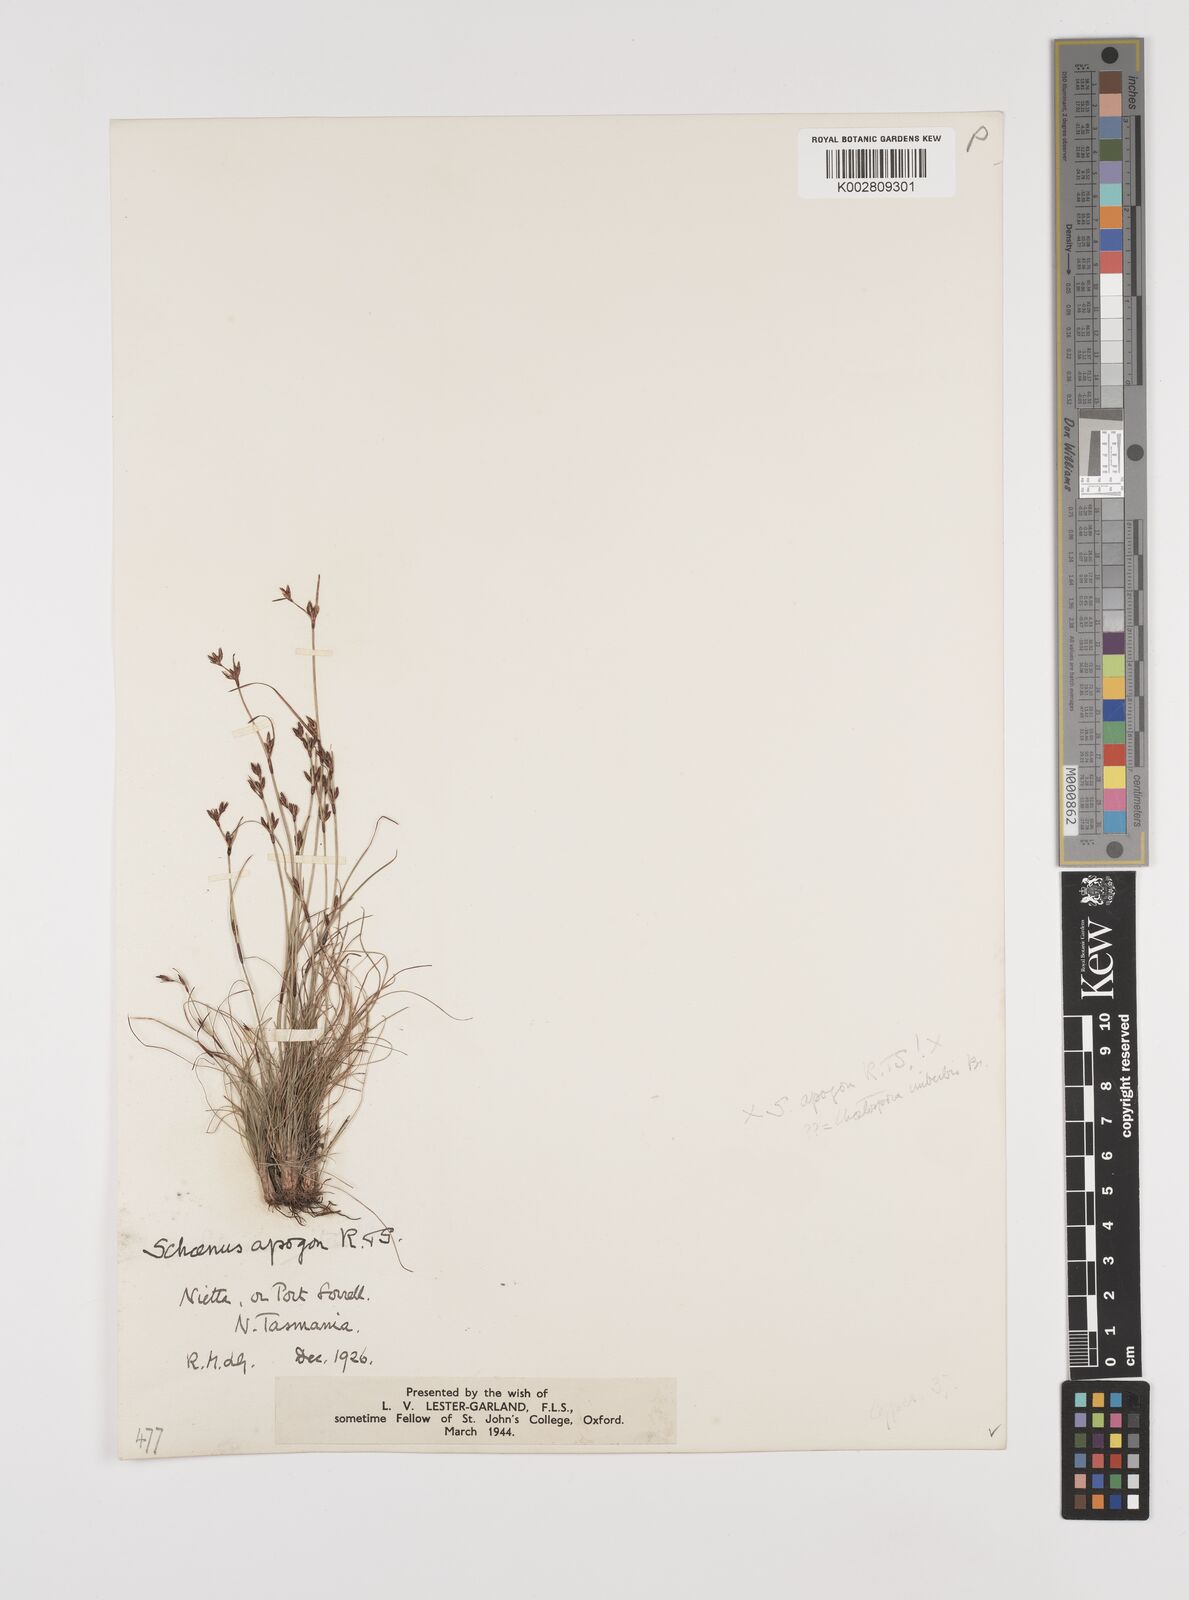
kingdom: Plantae
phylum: Tracheophyta
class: Liliopsida
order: Poales
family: Cyperaceae
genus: Schoenus
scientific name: Schoenus apogon
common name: Smooth bogrush
